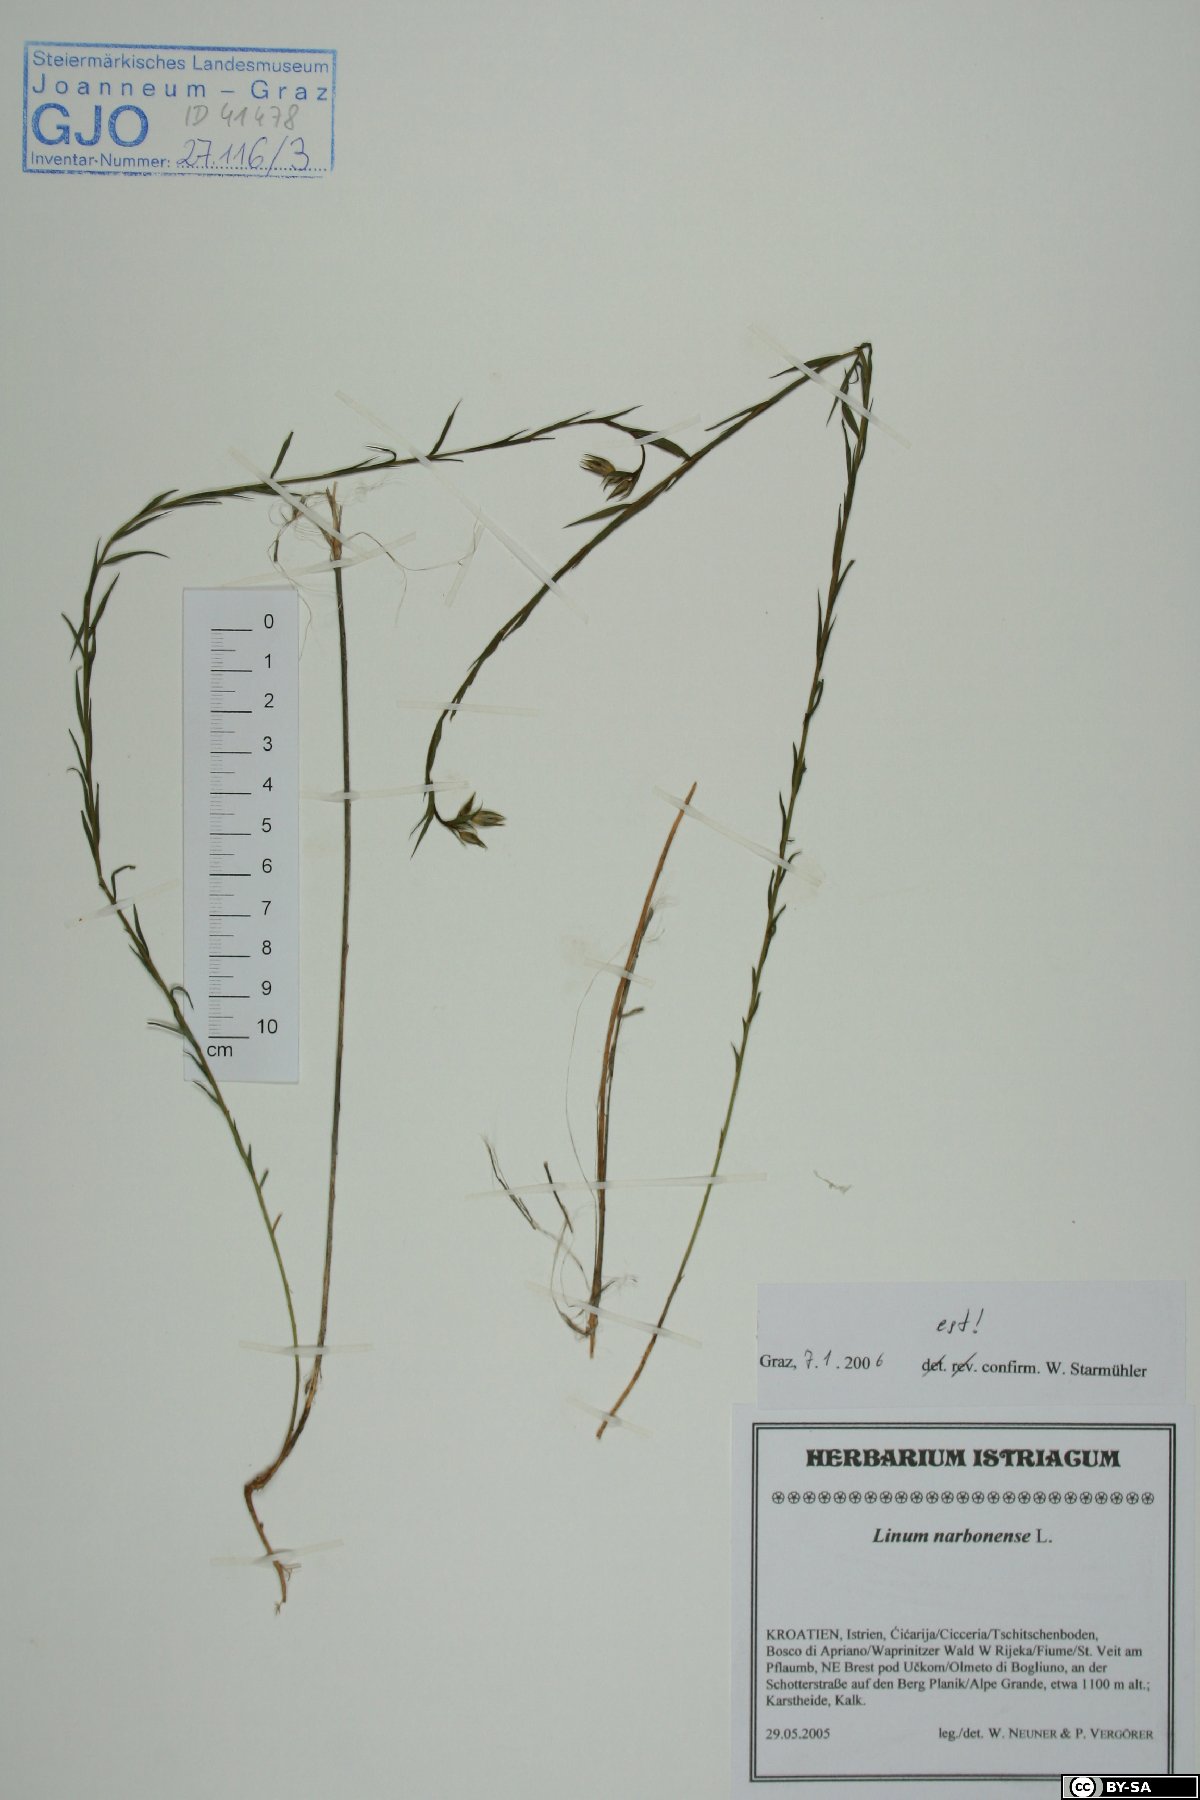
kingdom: Plantae
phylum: Tracheophyta
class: Magnoliopsida
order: Malpighiales
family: Linaceae
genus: Linum
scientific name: Linum narbonense
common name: Flax
